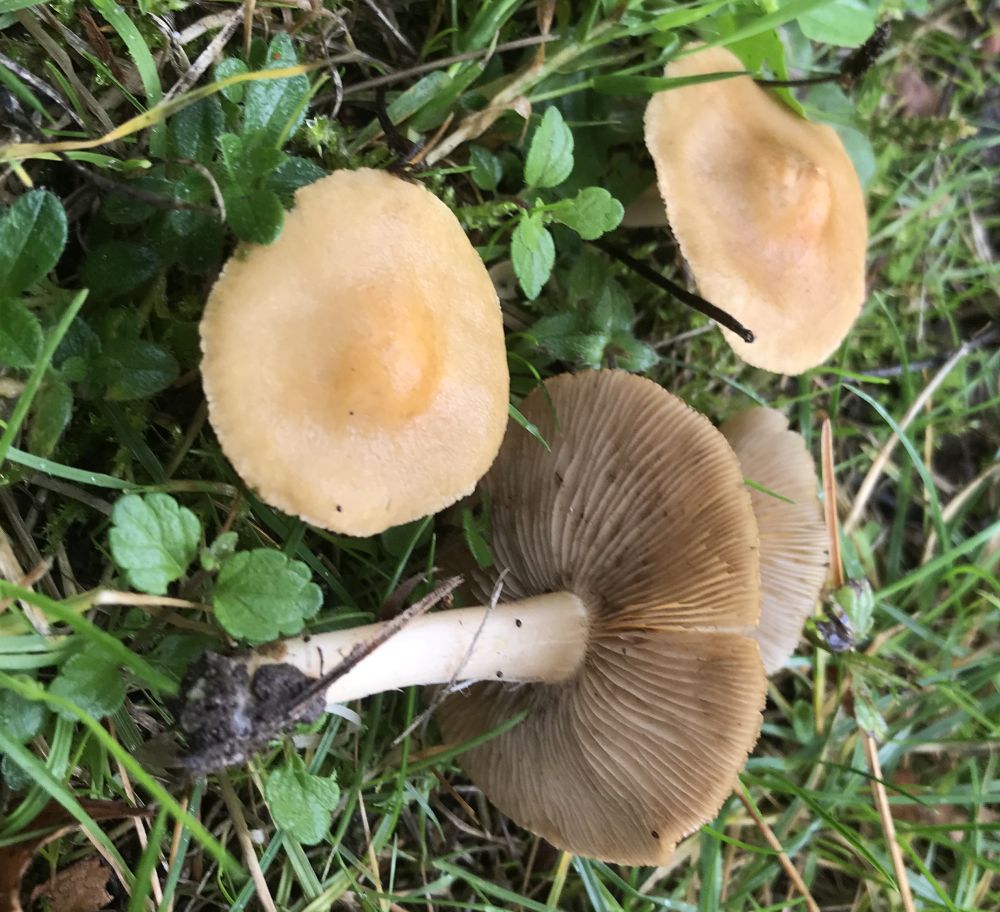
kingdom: Fungi
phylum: Basidiomycota
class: Agaricomycetes
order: Agaricales
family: Inocybaceae
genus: Inocybe
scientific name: Inocybe
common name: trævlhat
